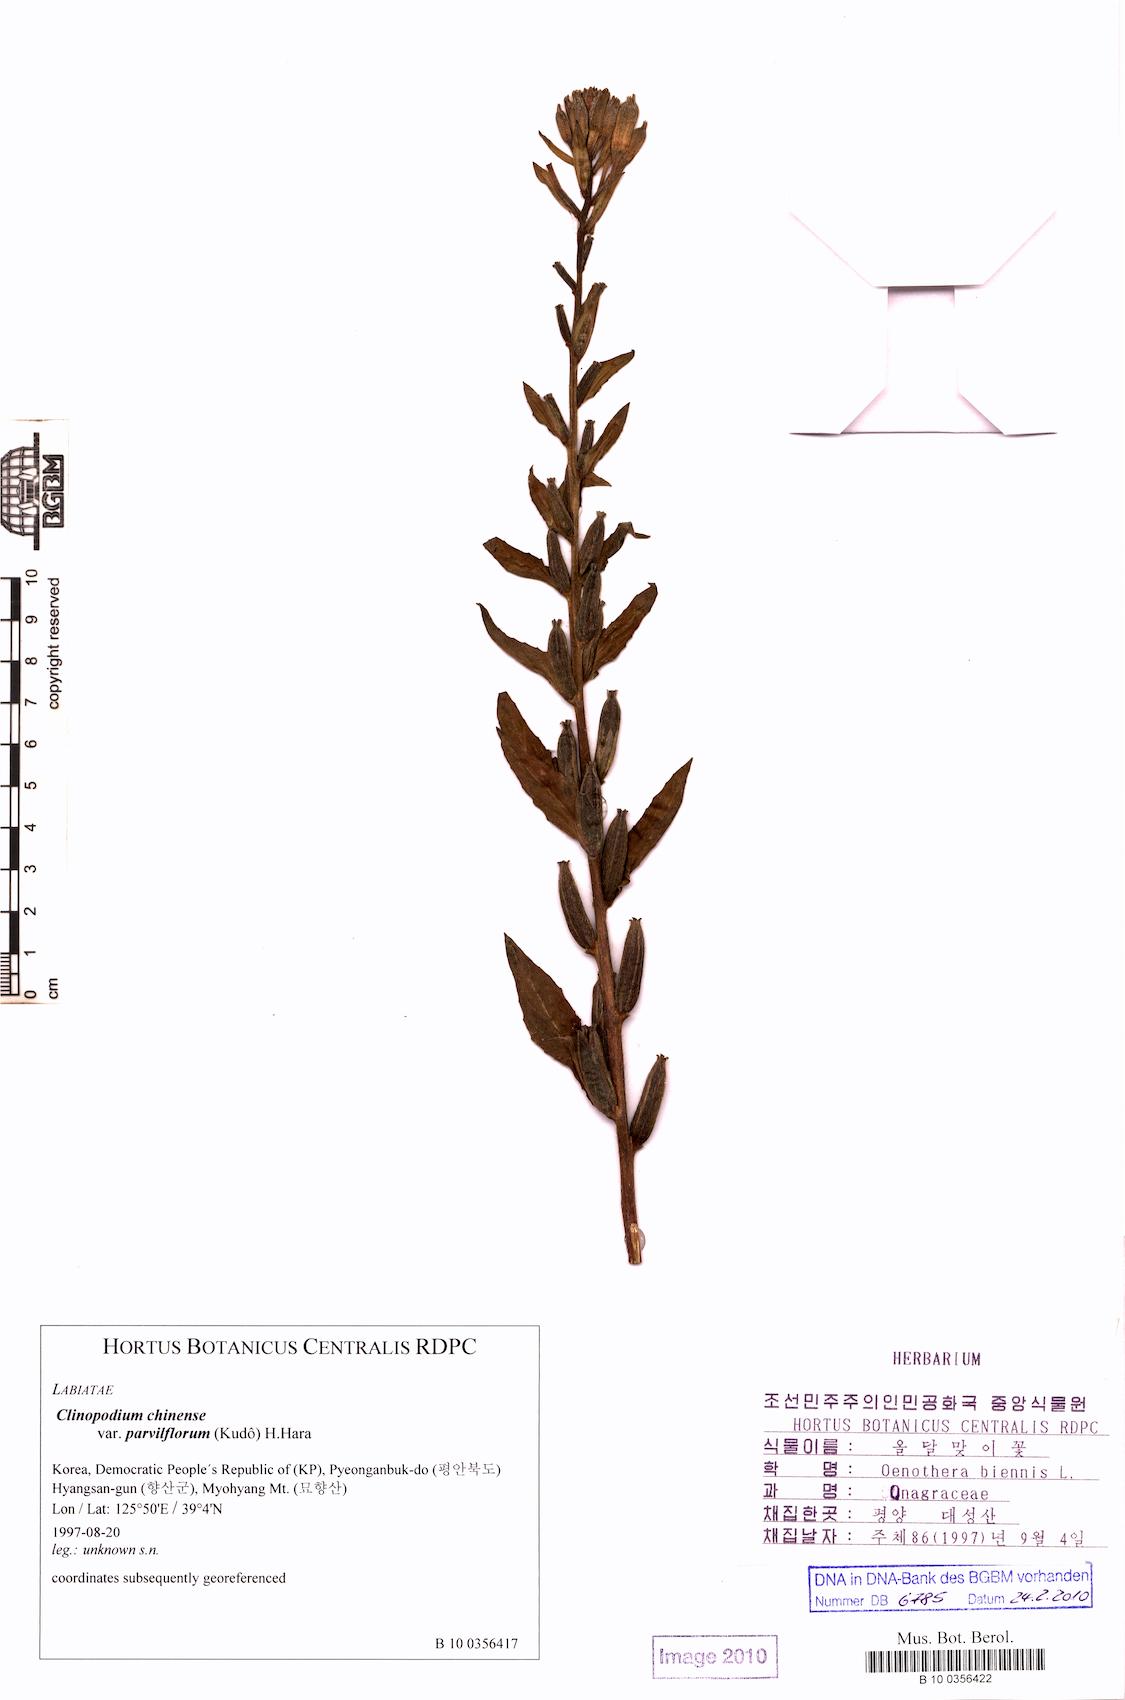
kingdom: Plantae
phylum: Tracheophyta
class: Magnoliopsida
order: Myrtales
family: Onagraceae
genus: Oenothera
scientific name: Oenothera biennis
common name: Common evening-primrose
